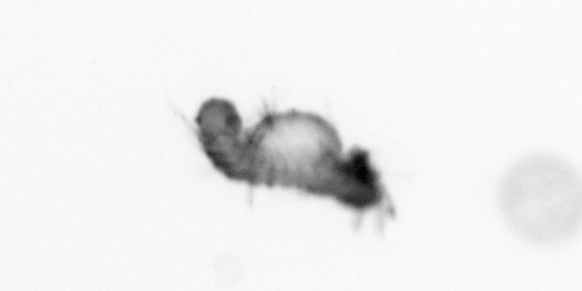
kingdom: Animalia
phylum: Annelida
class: Polychaeta
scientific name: Polychaeta
